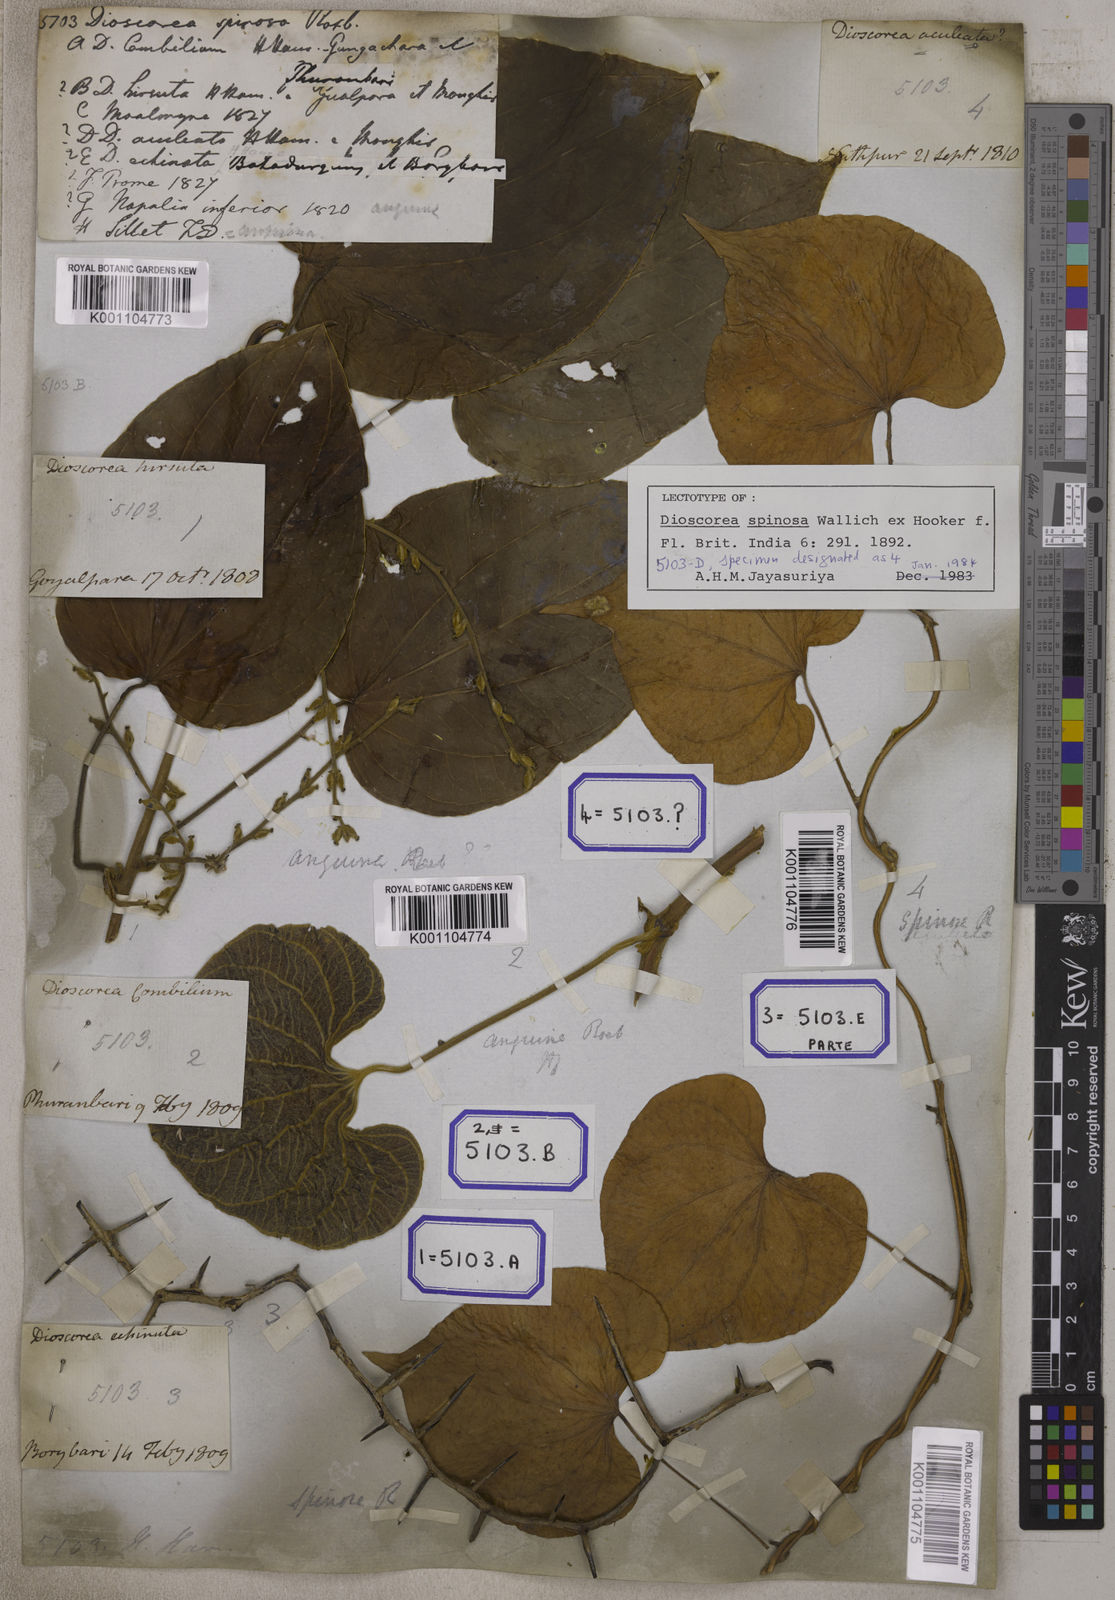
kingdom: Plantae
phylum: Tracheophyta
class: Liliopsida
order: Dioscoreales
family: Dioscoreaceae
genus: Dioscorea
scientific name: Dioscorea
